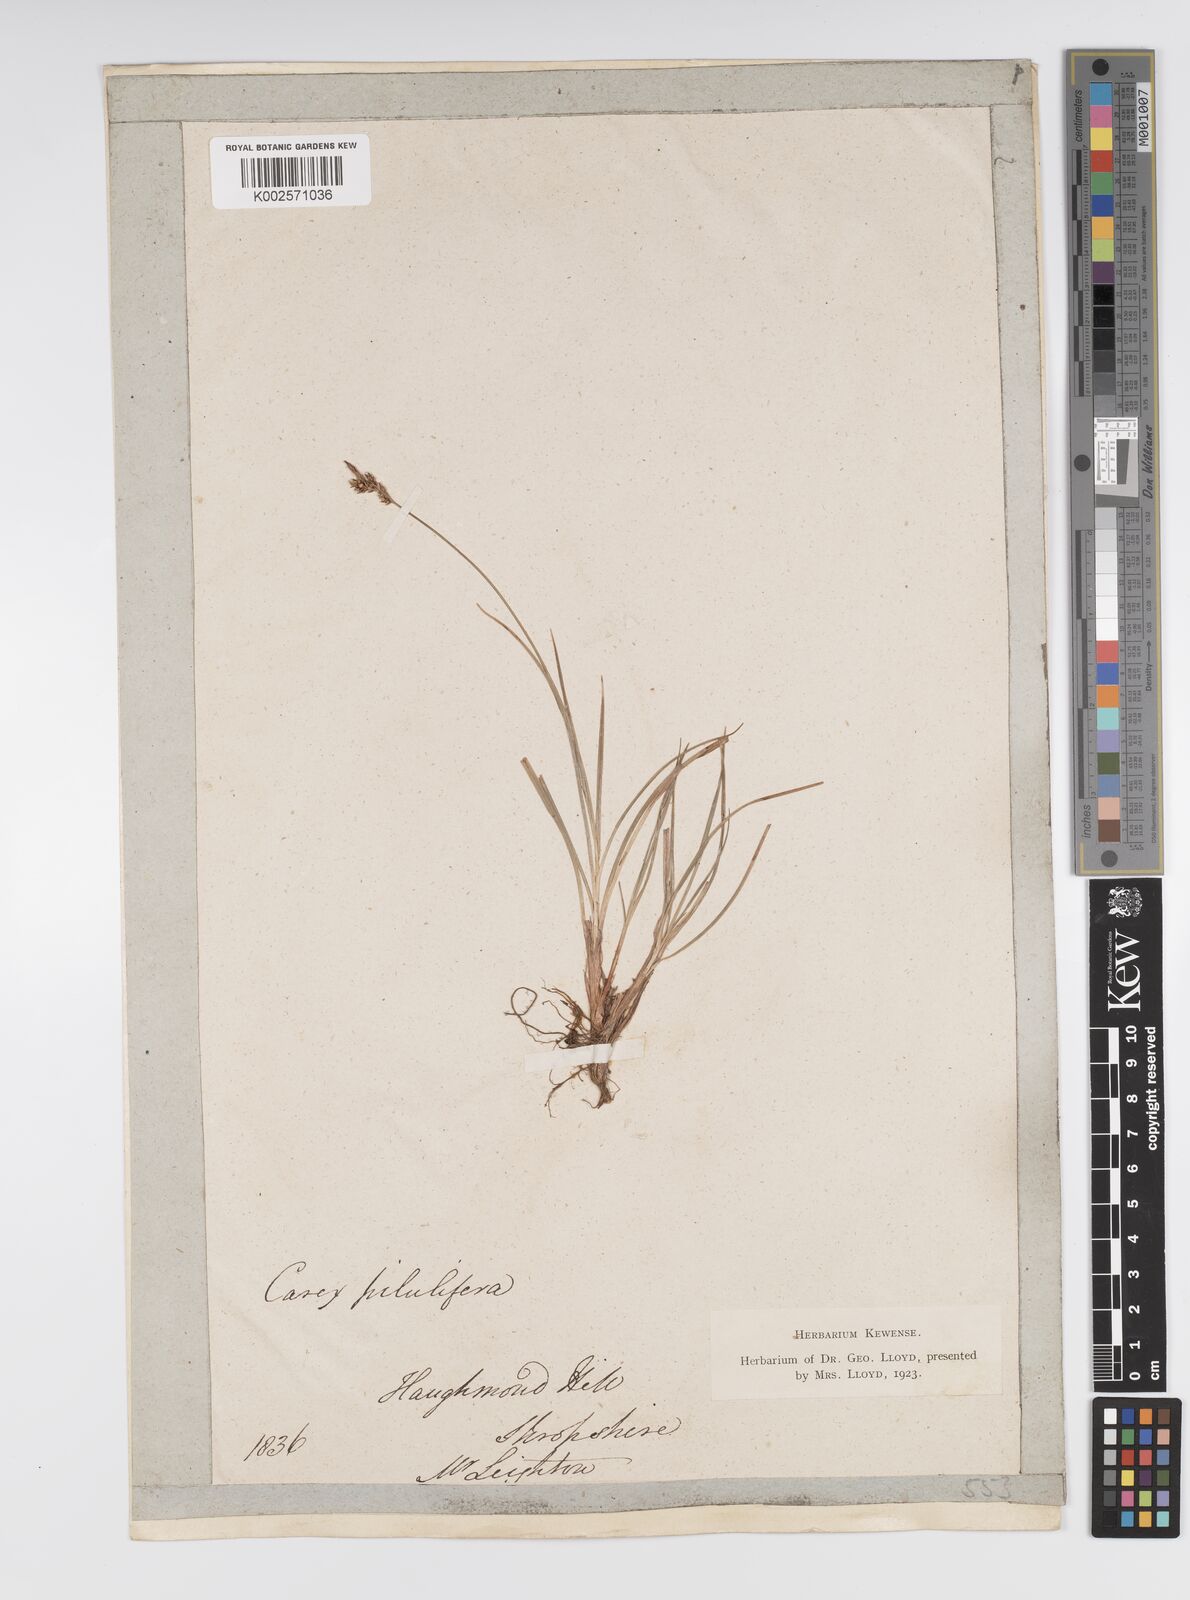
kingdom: Plantae
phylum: Tracheophyta
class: Liliopsida
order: Poales
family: Cyperaceae
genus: Carex
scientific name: Carex pilulifera
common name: Pill sedge
